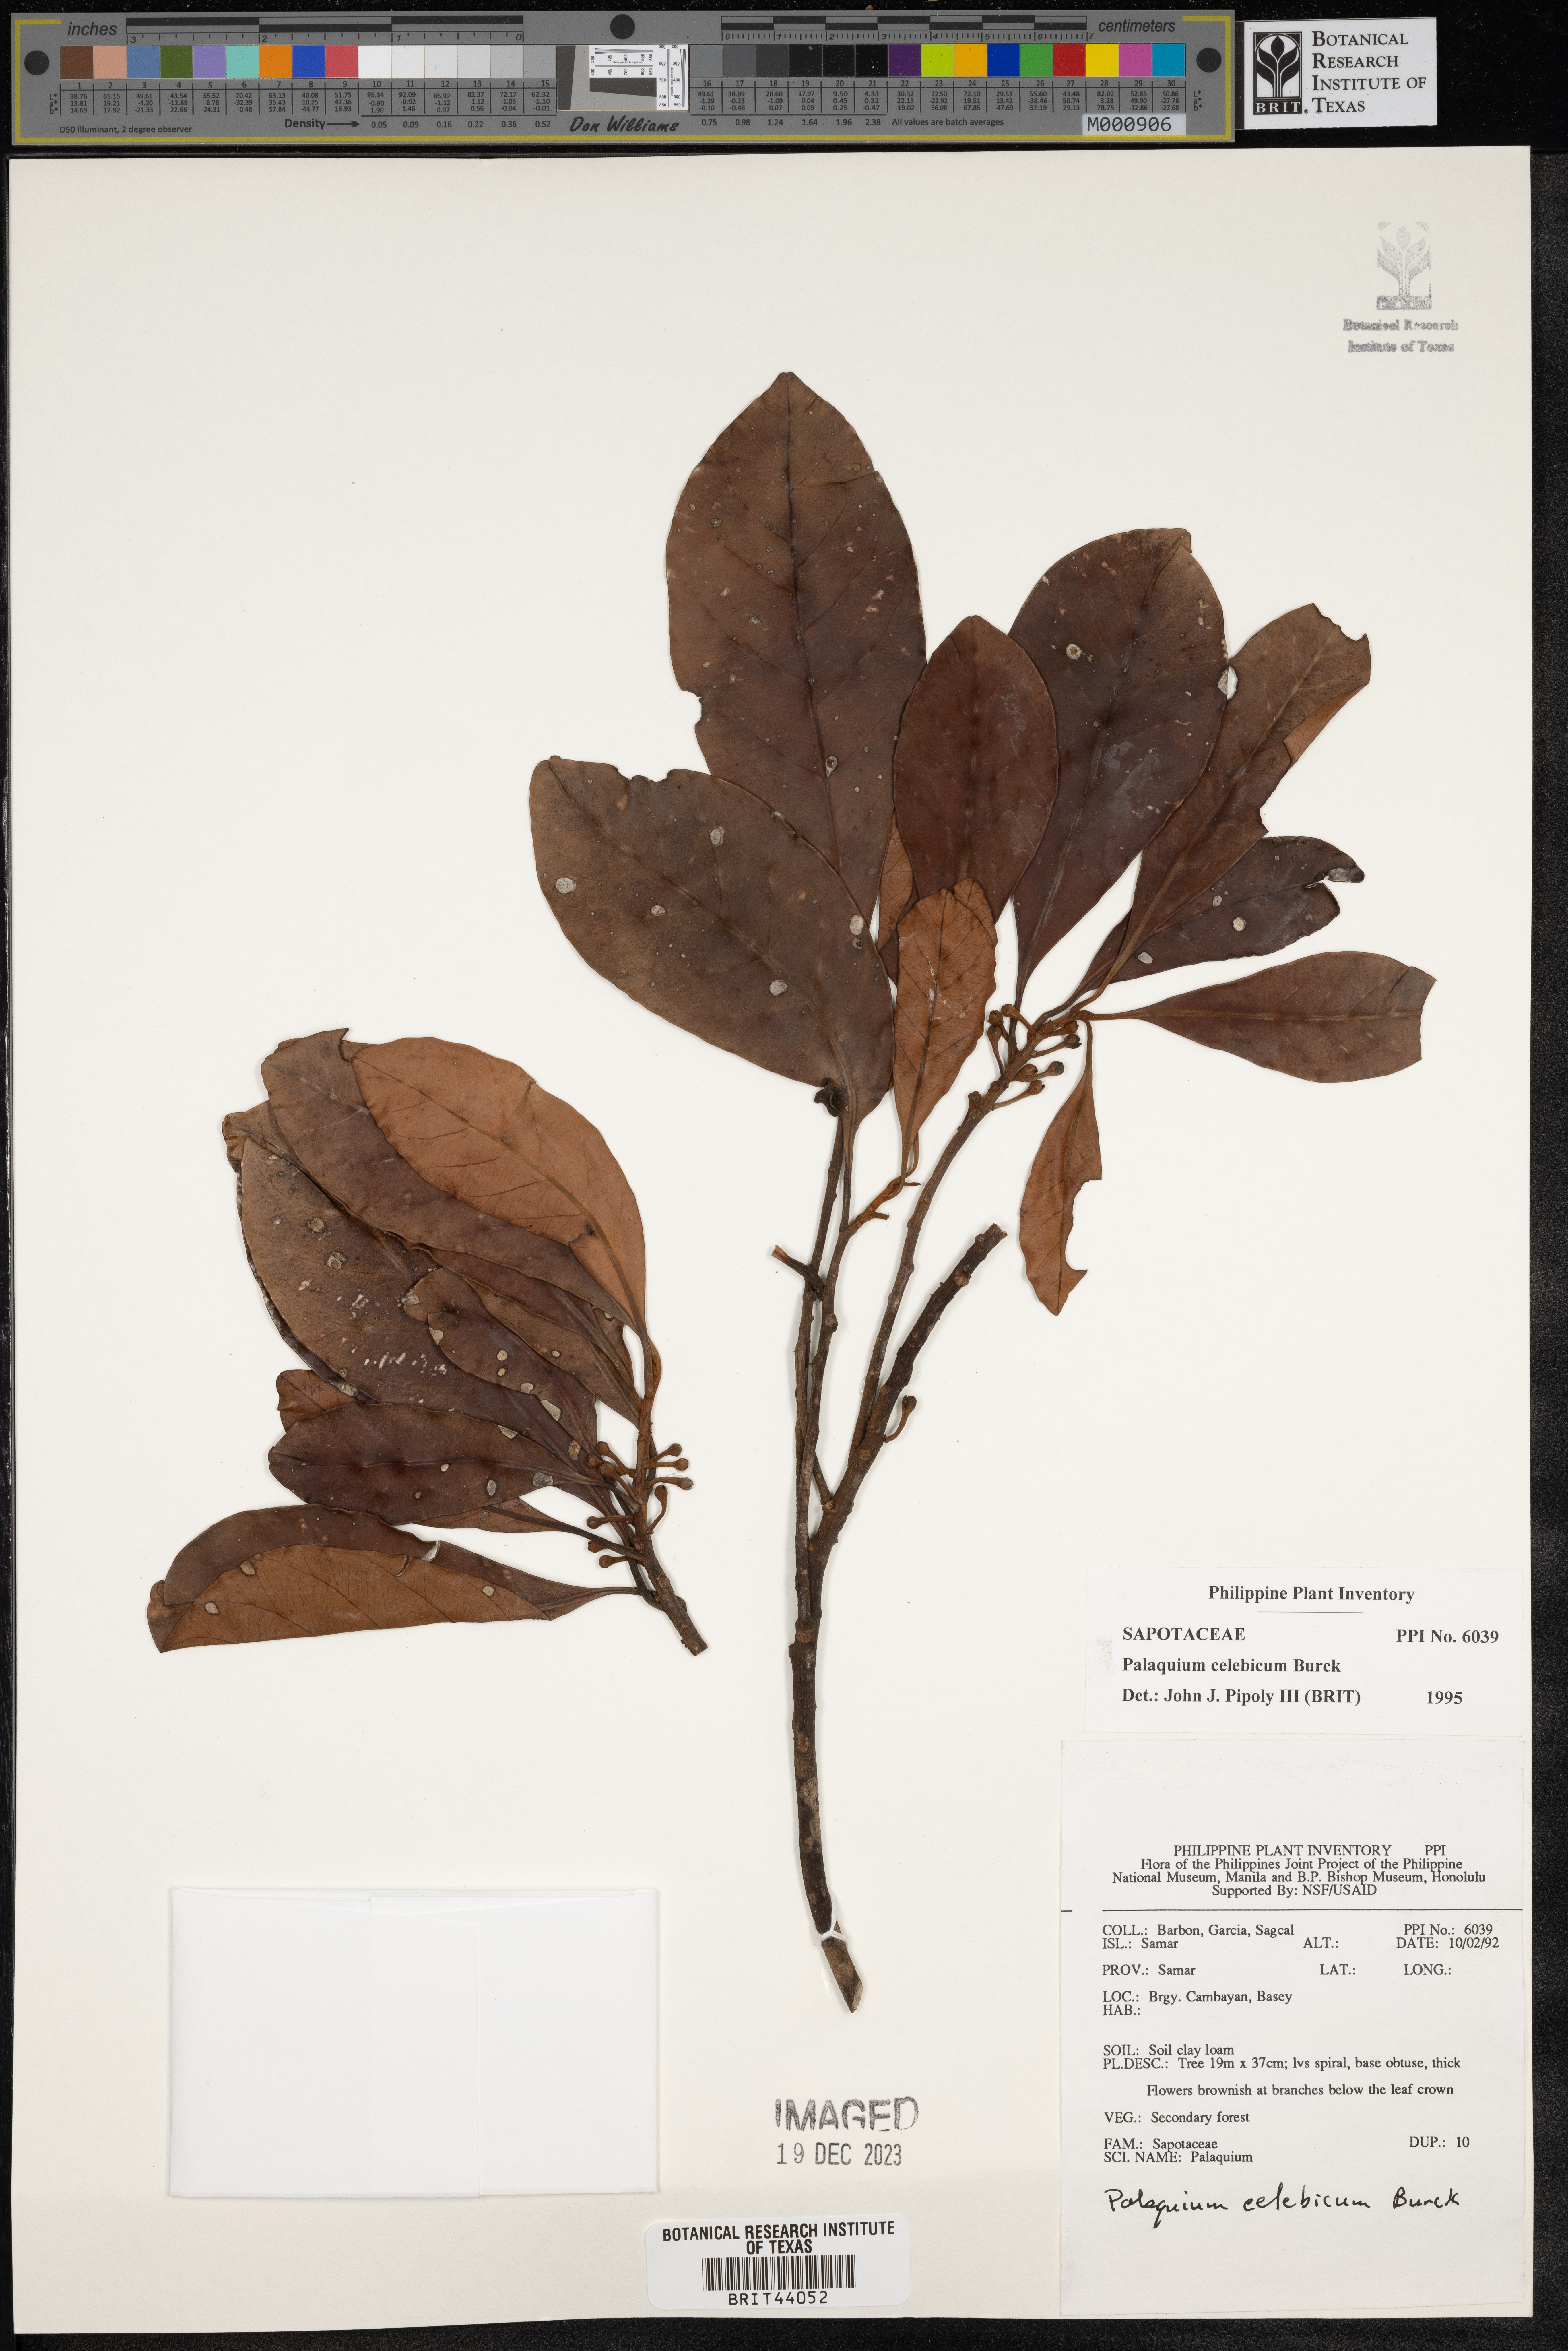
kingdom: Plantae
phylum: Tracheophyta
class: Magnoliopsida
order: Ericales
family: Sapotaceae
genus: Palaquium
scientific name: Palaquium obovatum
